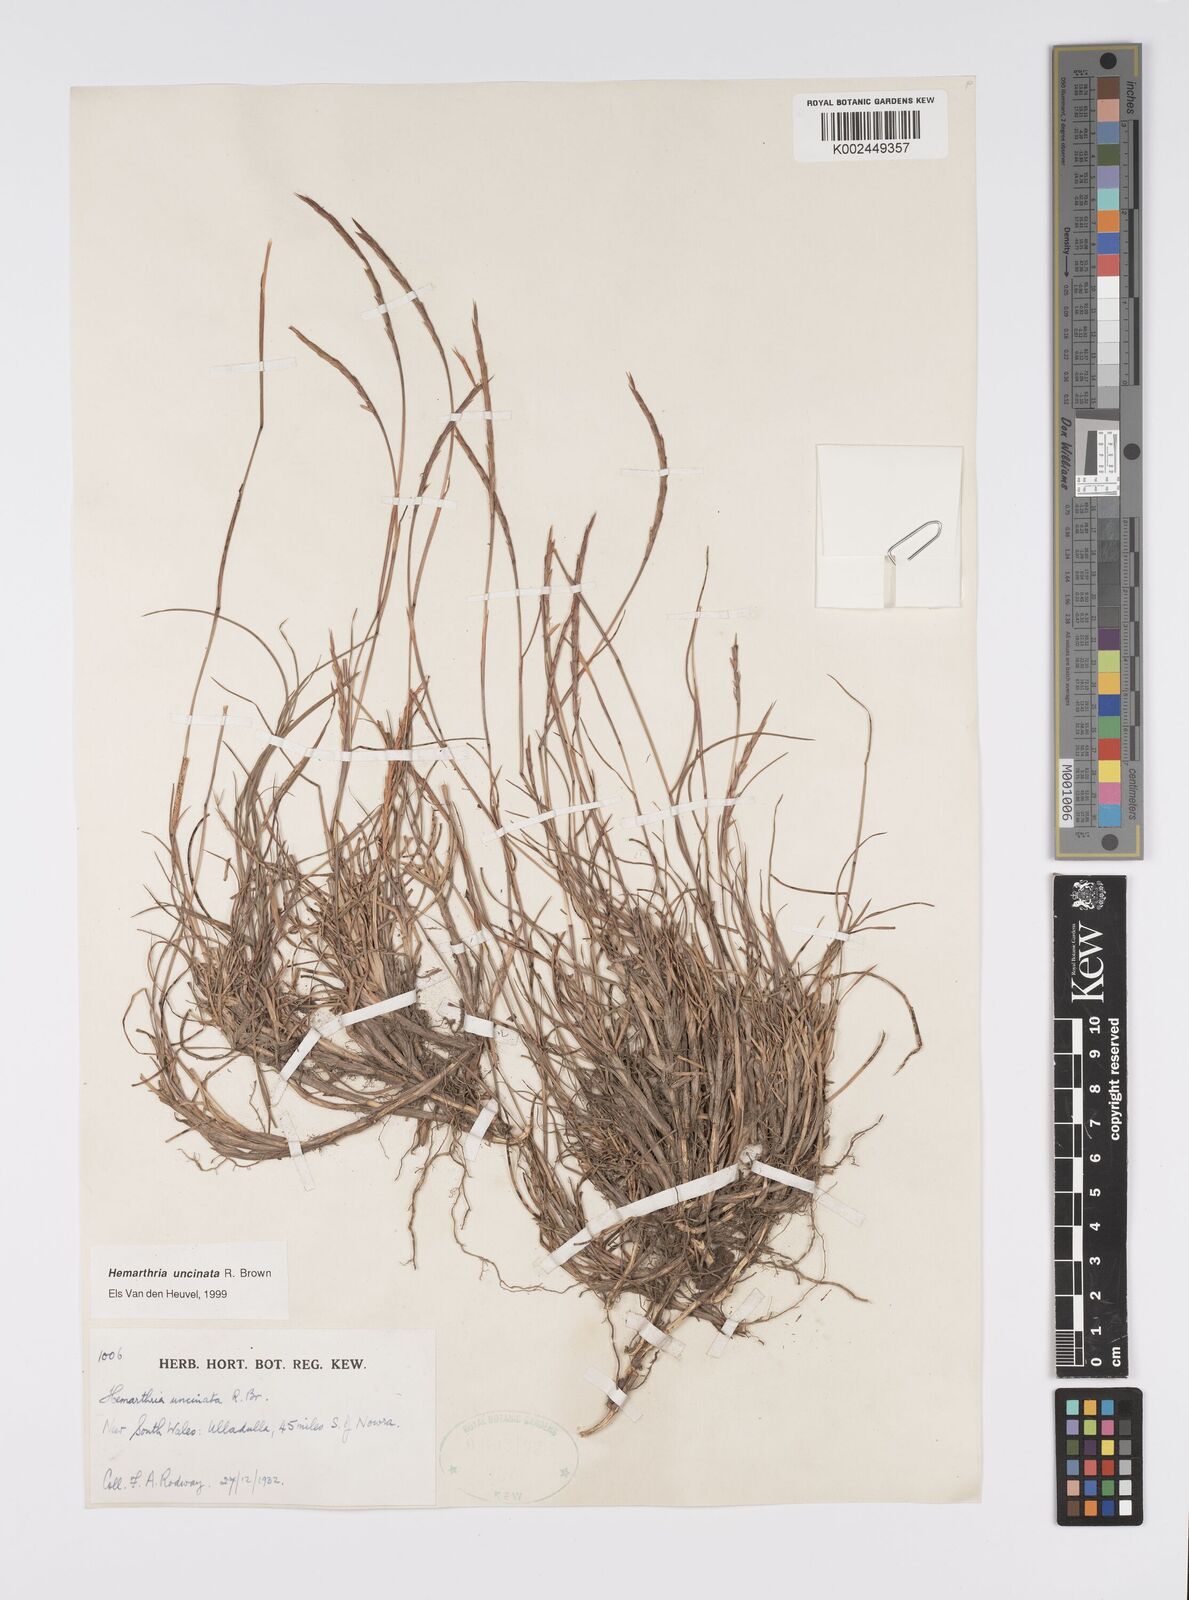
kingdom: Plantae
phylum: Tracheophyta
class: Liliopsida
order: Poales
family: Poaceae
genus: Hemarthria
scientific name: Hemarthria uncinata
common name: Matgrass
